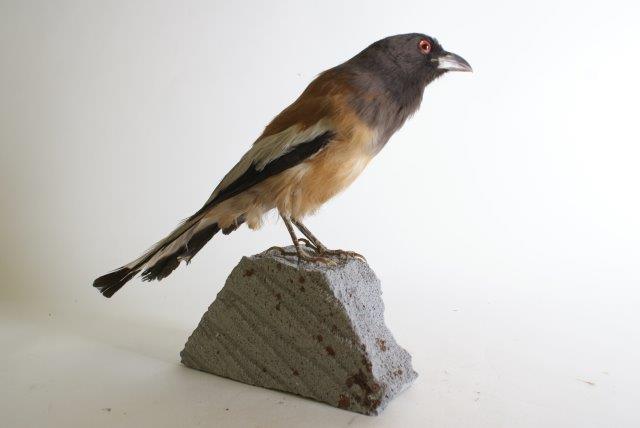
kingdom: Animalia
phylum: Chordata
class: Aves
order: Passeriformes
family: Corvidae
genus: Dendrocitta
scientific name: Dendrocitta vagabunda
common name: Rufous treepie
